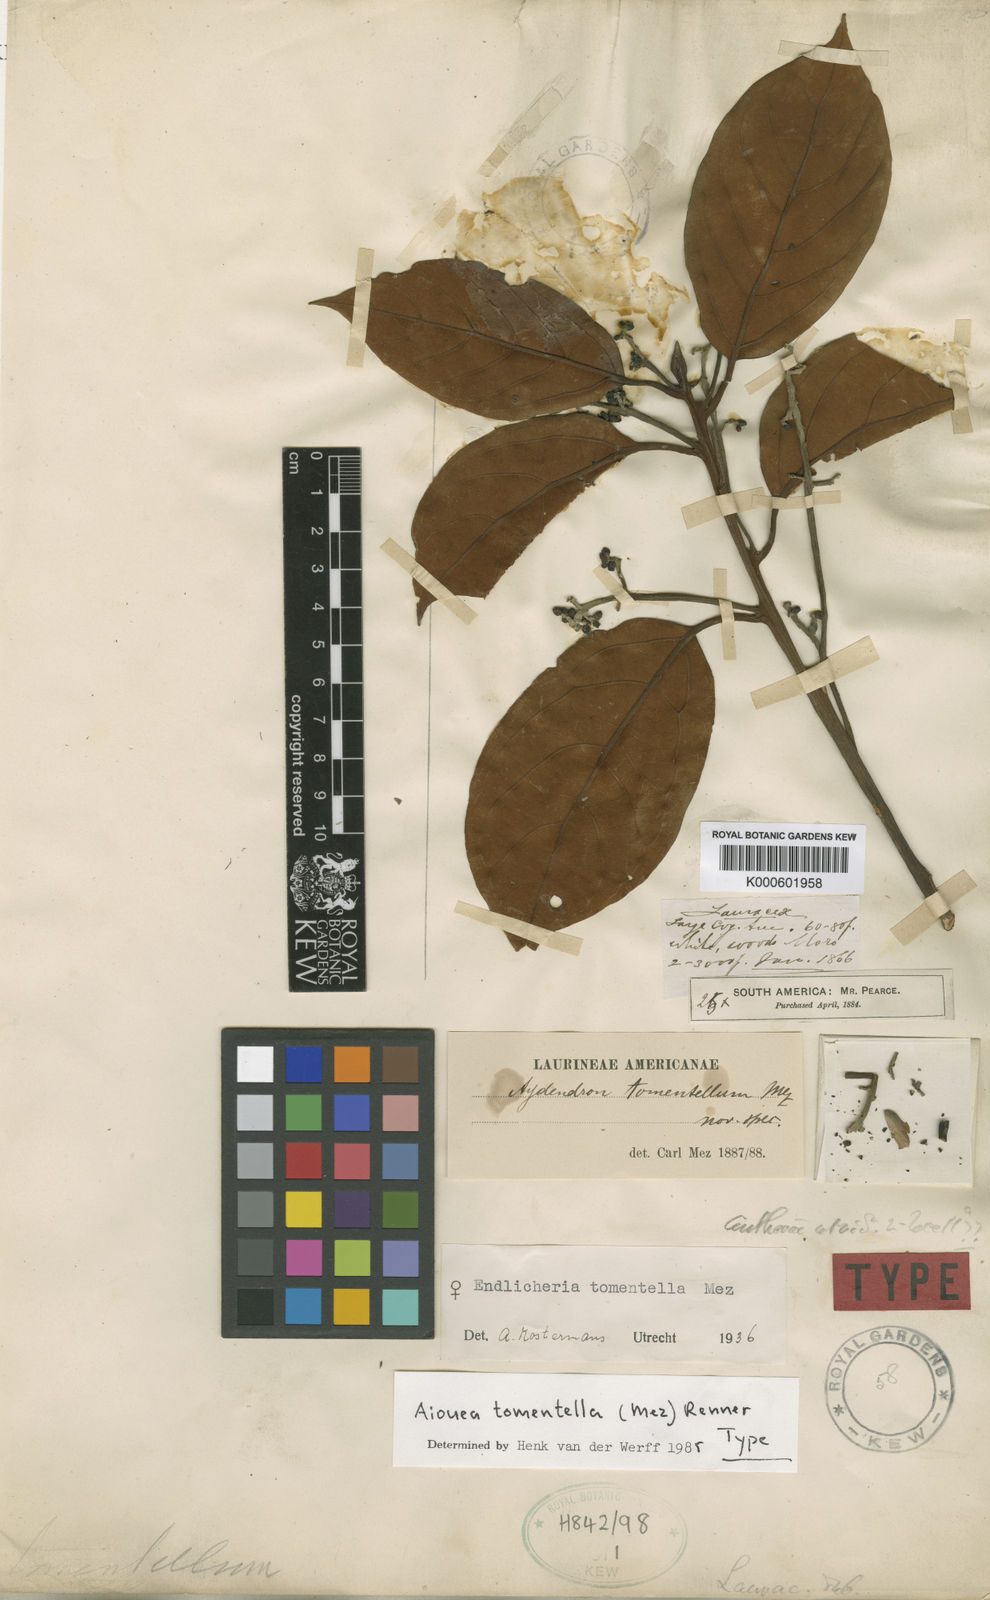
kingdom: Plantae
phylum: Tracheophyta
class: Magnoliopsida
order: Laurales
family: Lauraceae
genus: Aiouea
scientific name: Aiouea tomentella
